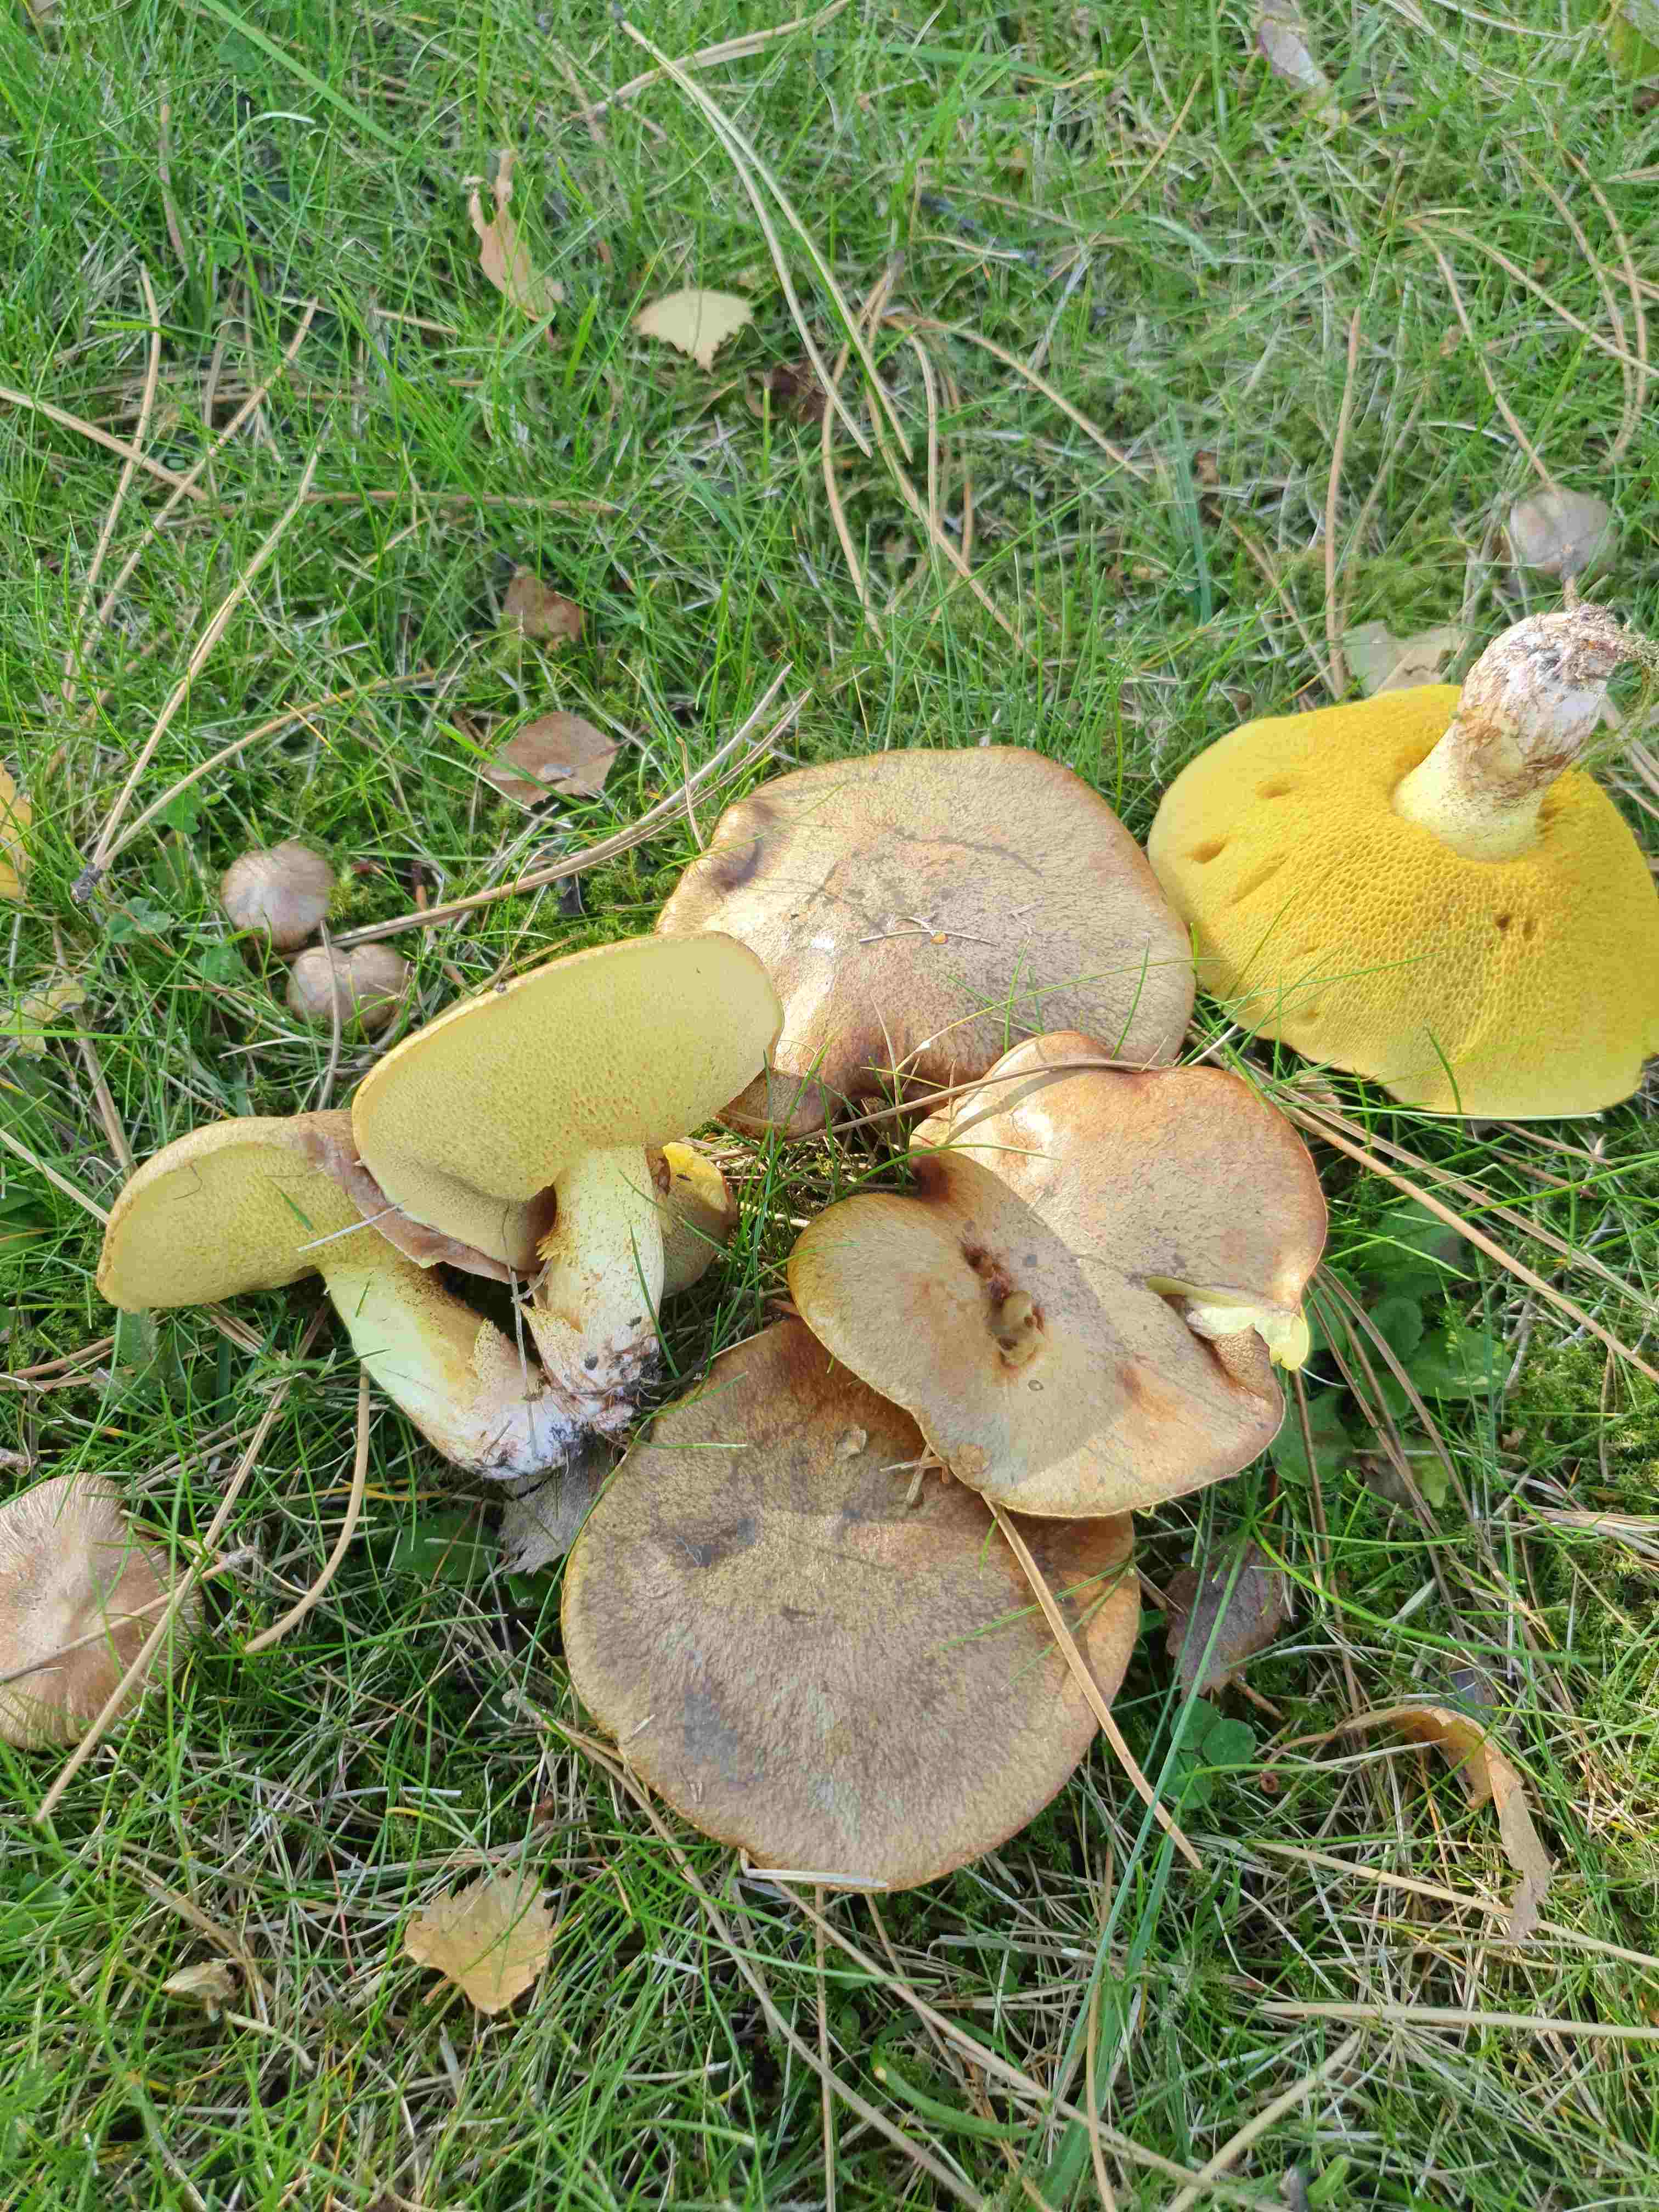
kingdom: Fungi
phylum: Basidiomycota
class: Agaricomycetes
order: Boletales
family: Suillaceae
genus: Suillus
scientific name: Suillus granulatus
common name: kornet slimrørhat
